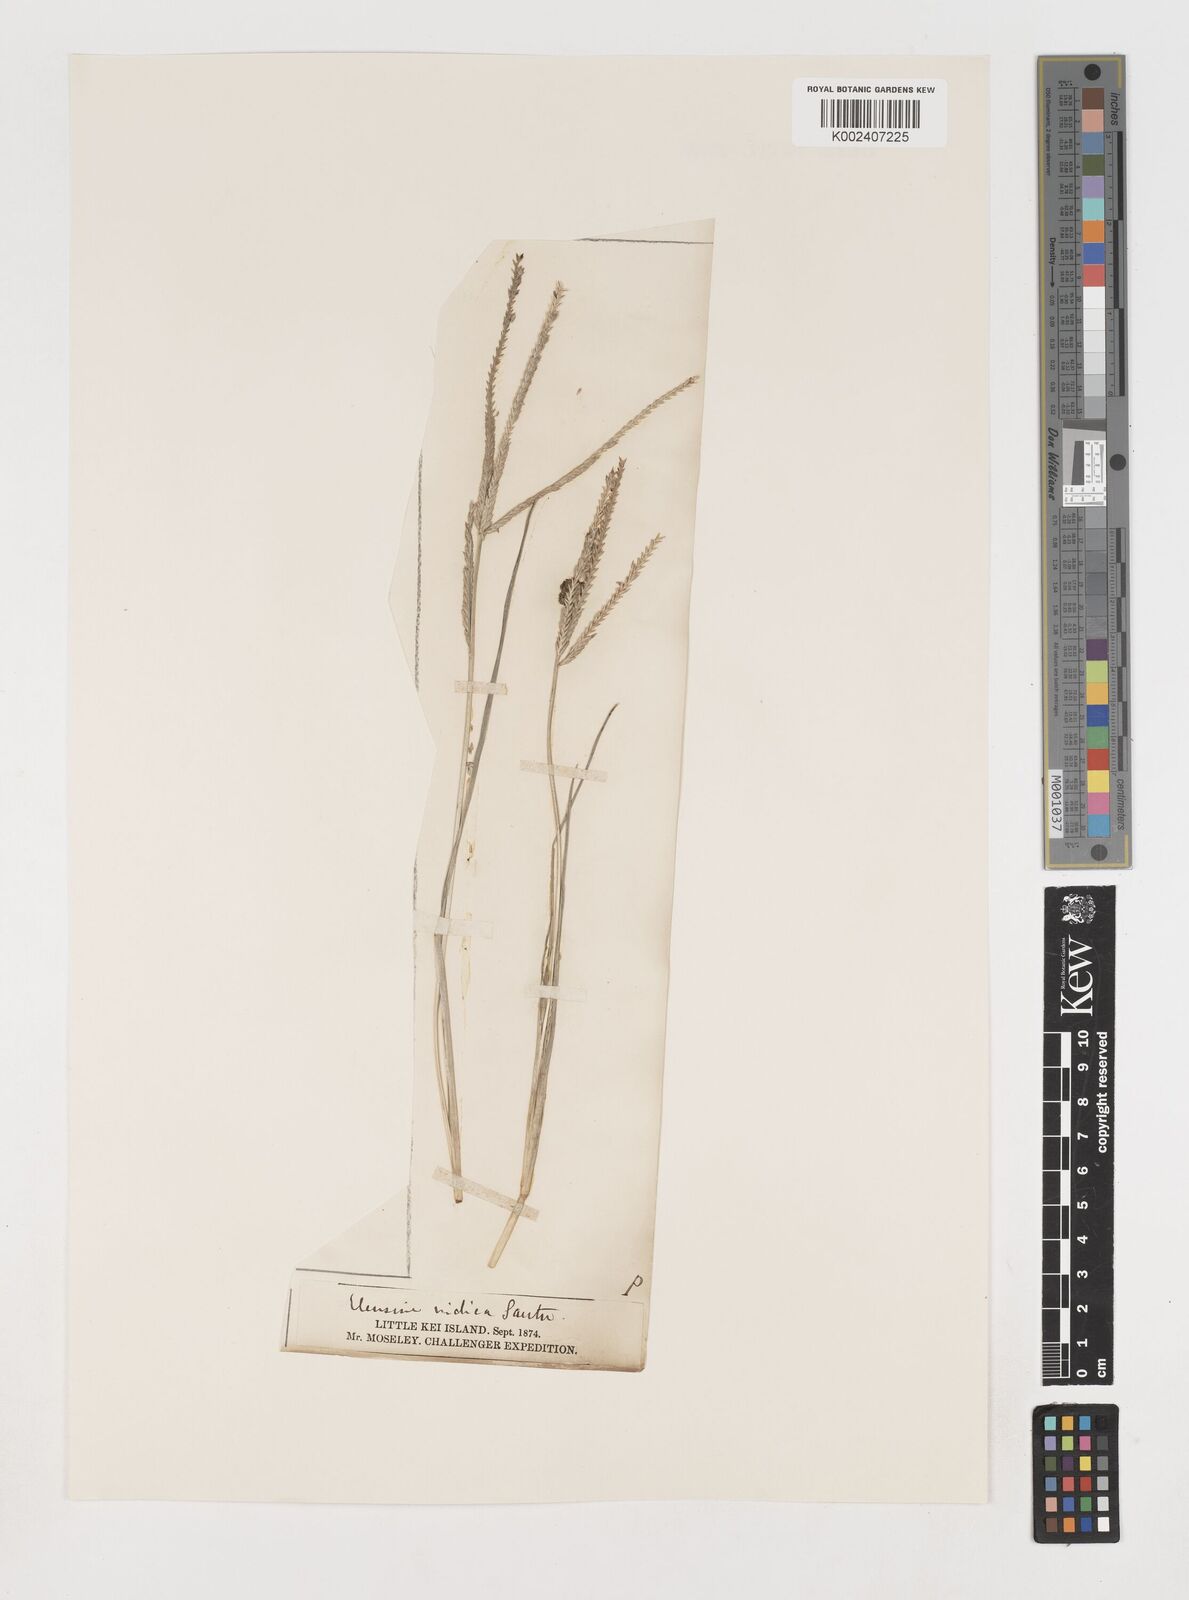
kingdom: Plantae
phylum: Tracheophyta
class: Liliopsida
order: Poales
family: Poaceae
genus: Eleusine
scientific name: Eleusine indica
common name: Yard-grass
